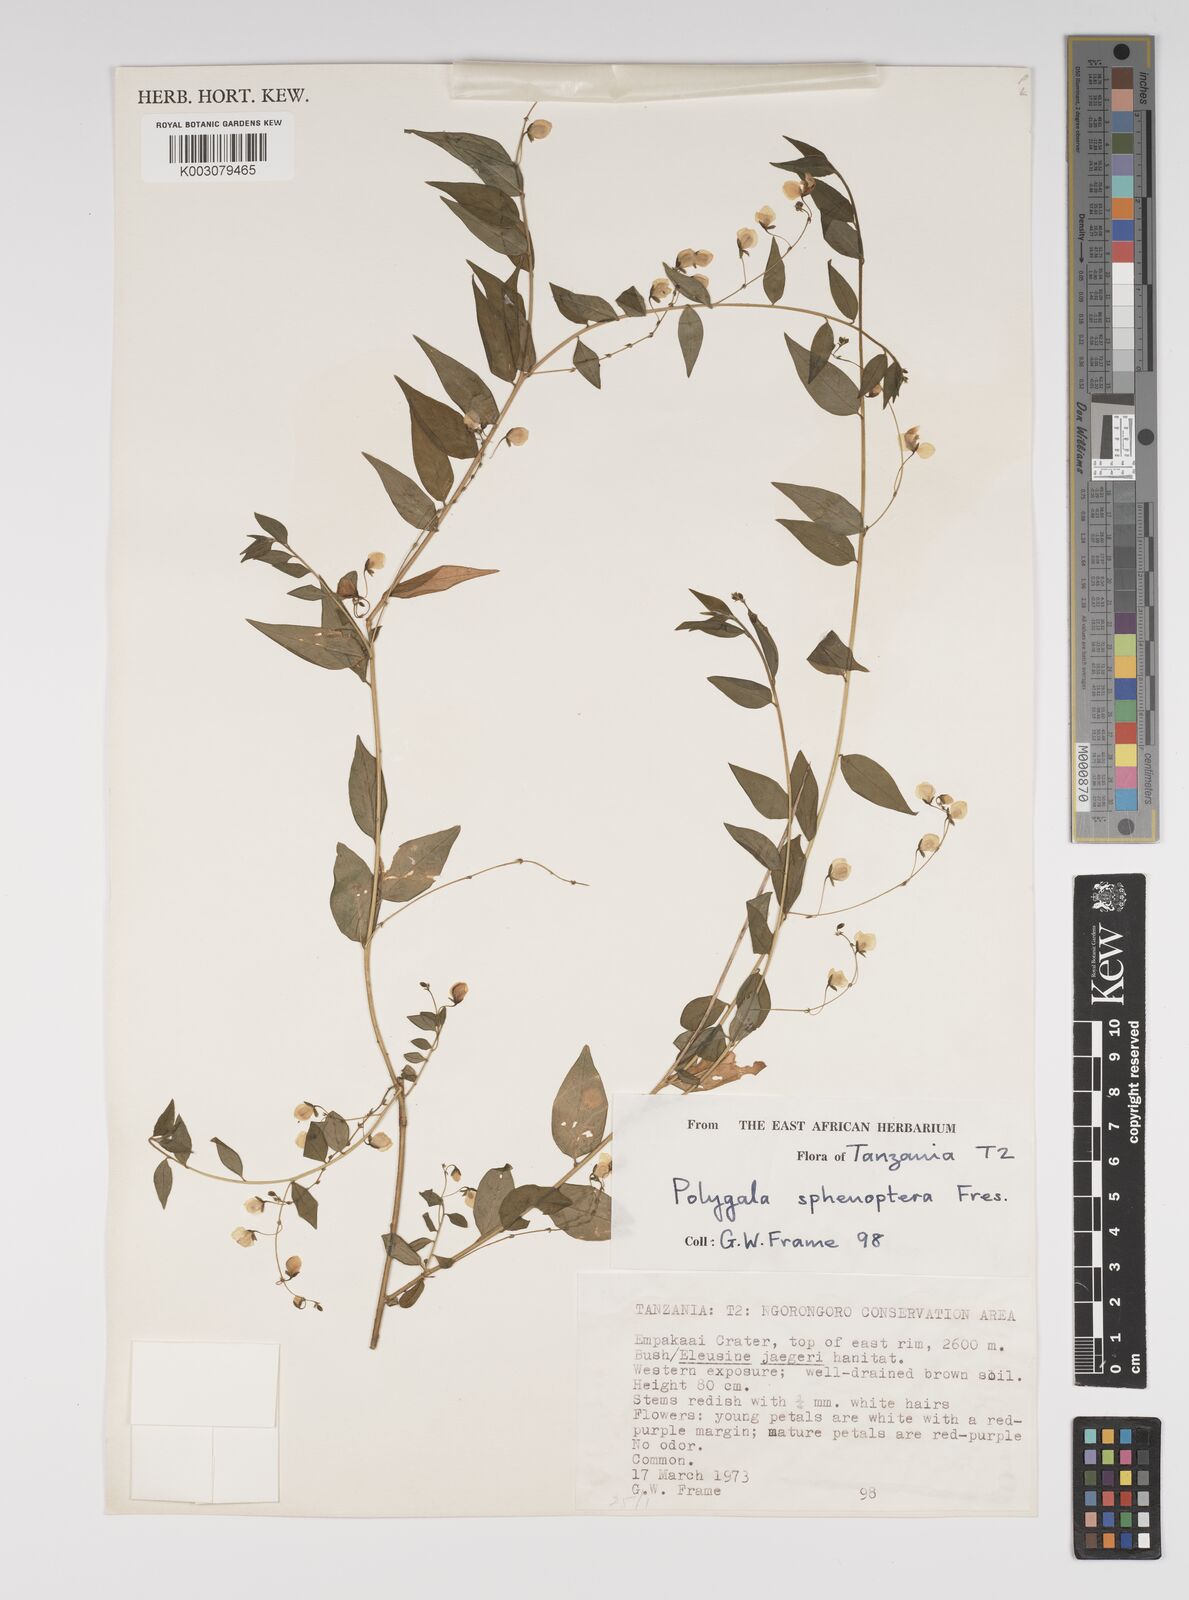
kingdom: Plantae
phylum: Tracheophyta
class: Magnoliopsida
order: Fabales
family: Polygalaceae
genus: Polygala
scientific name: Polygala sphenoptera
